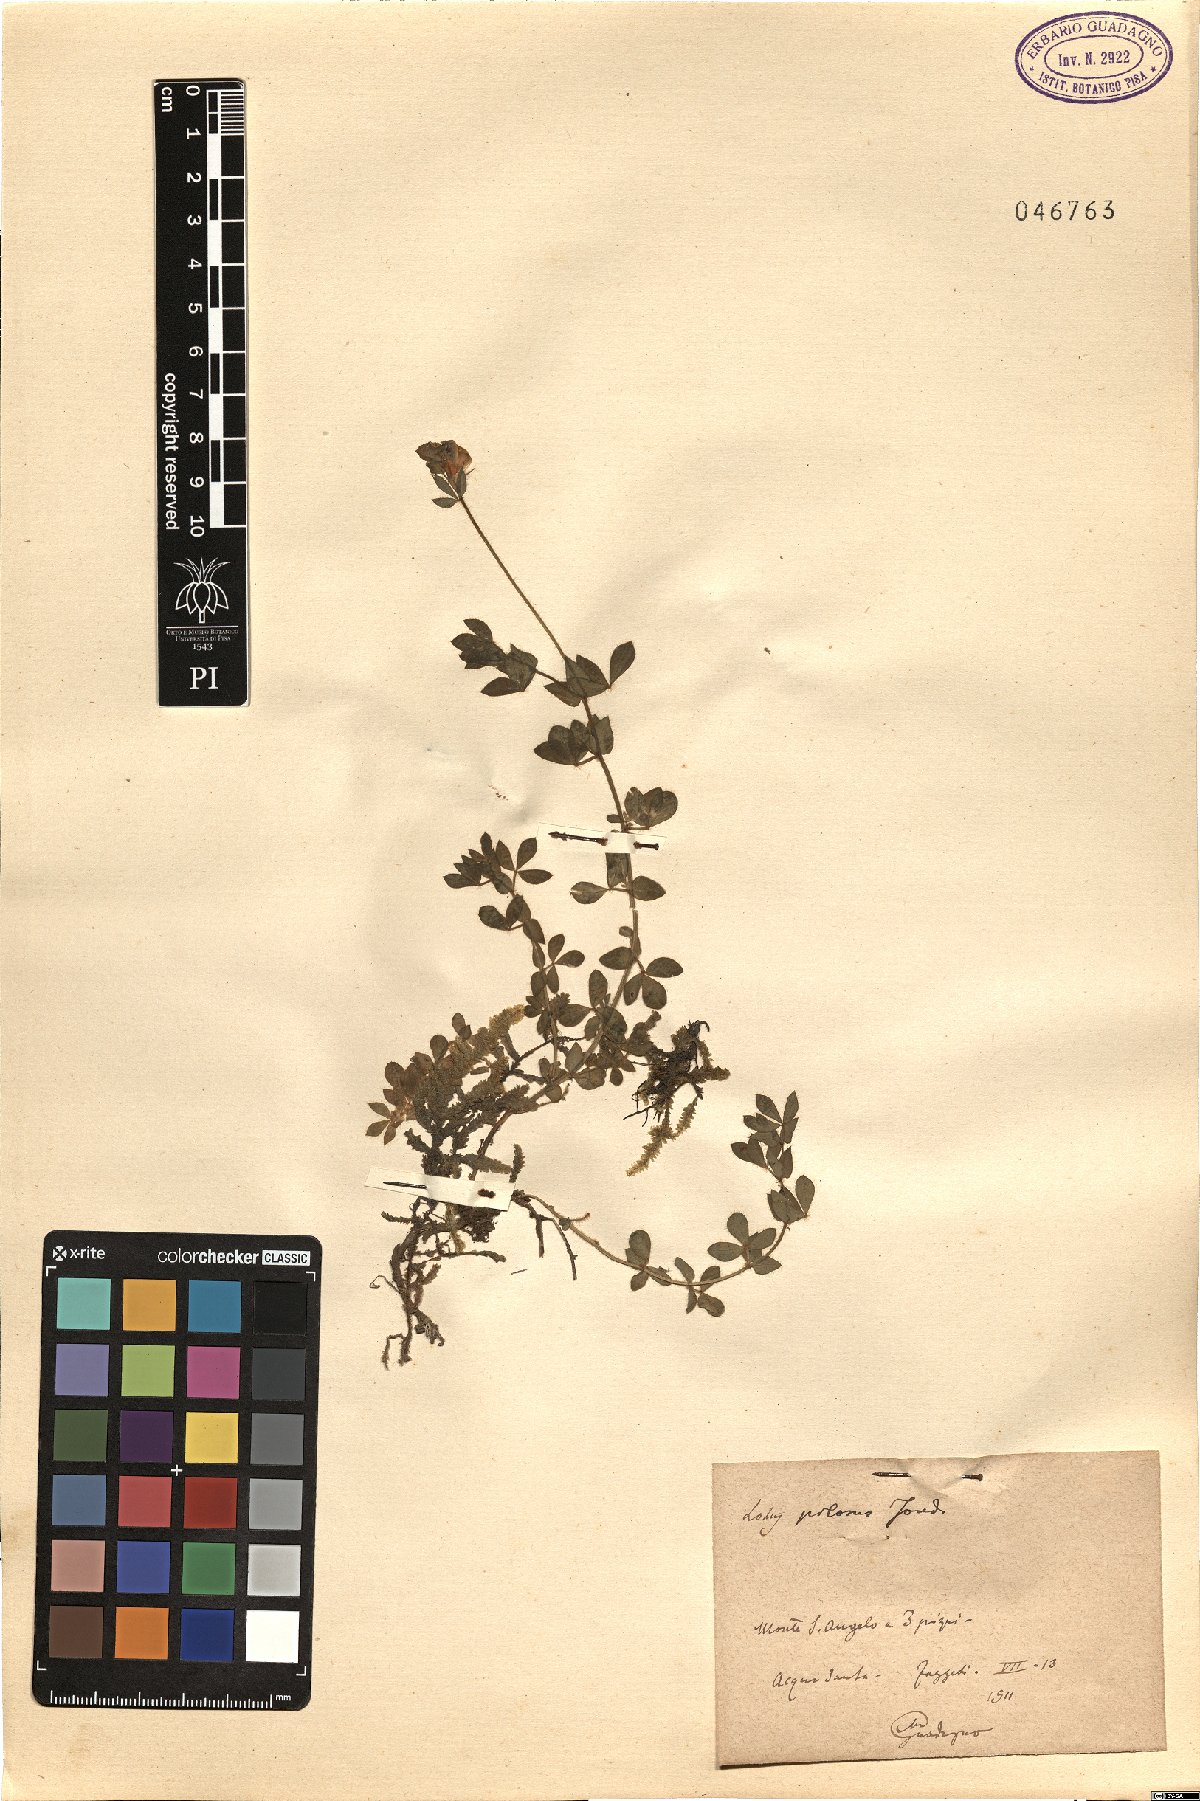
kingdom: Plantae
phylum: Tracheophyta
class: Magnoliopsida
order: Fabales
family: Fabaceae
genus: Lotus
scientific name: Lotus corniculatus
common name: Common bird's-foot-trefoil
